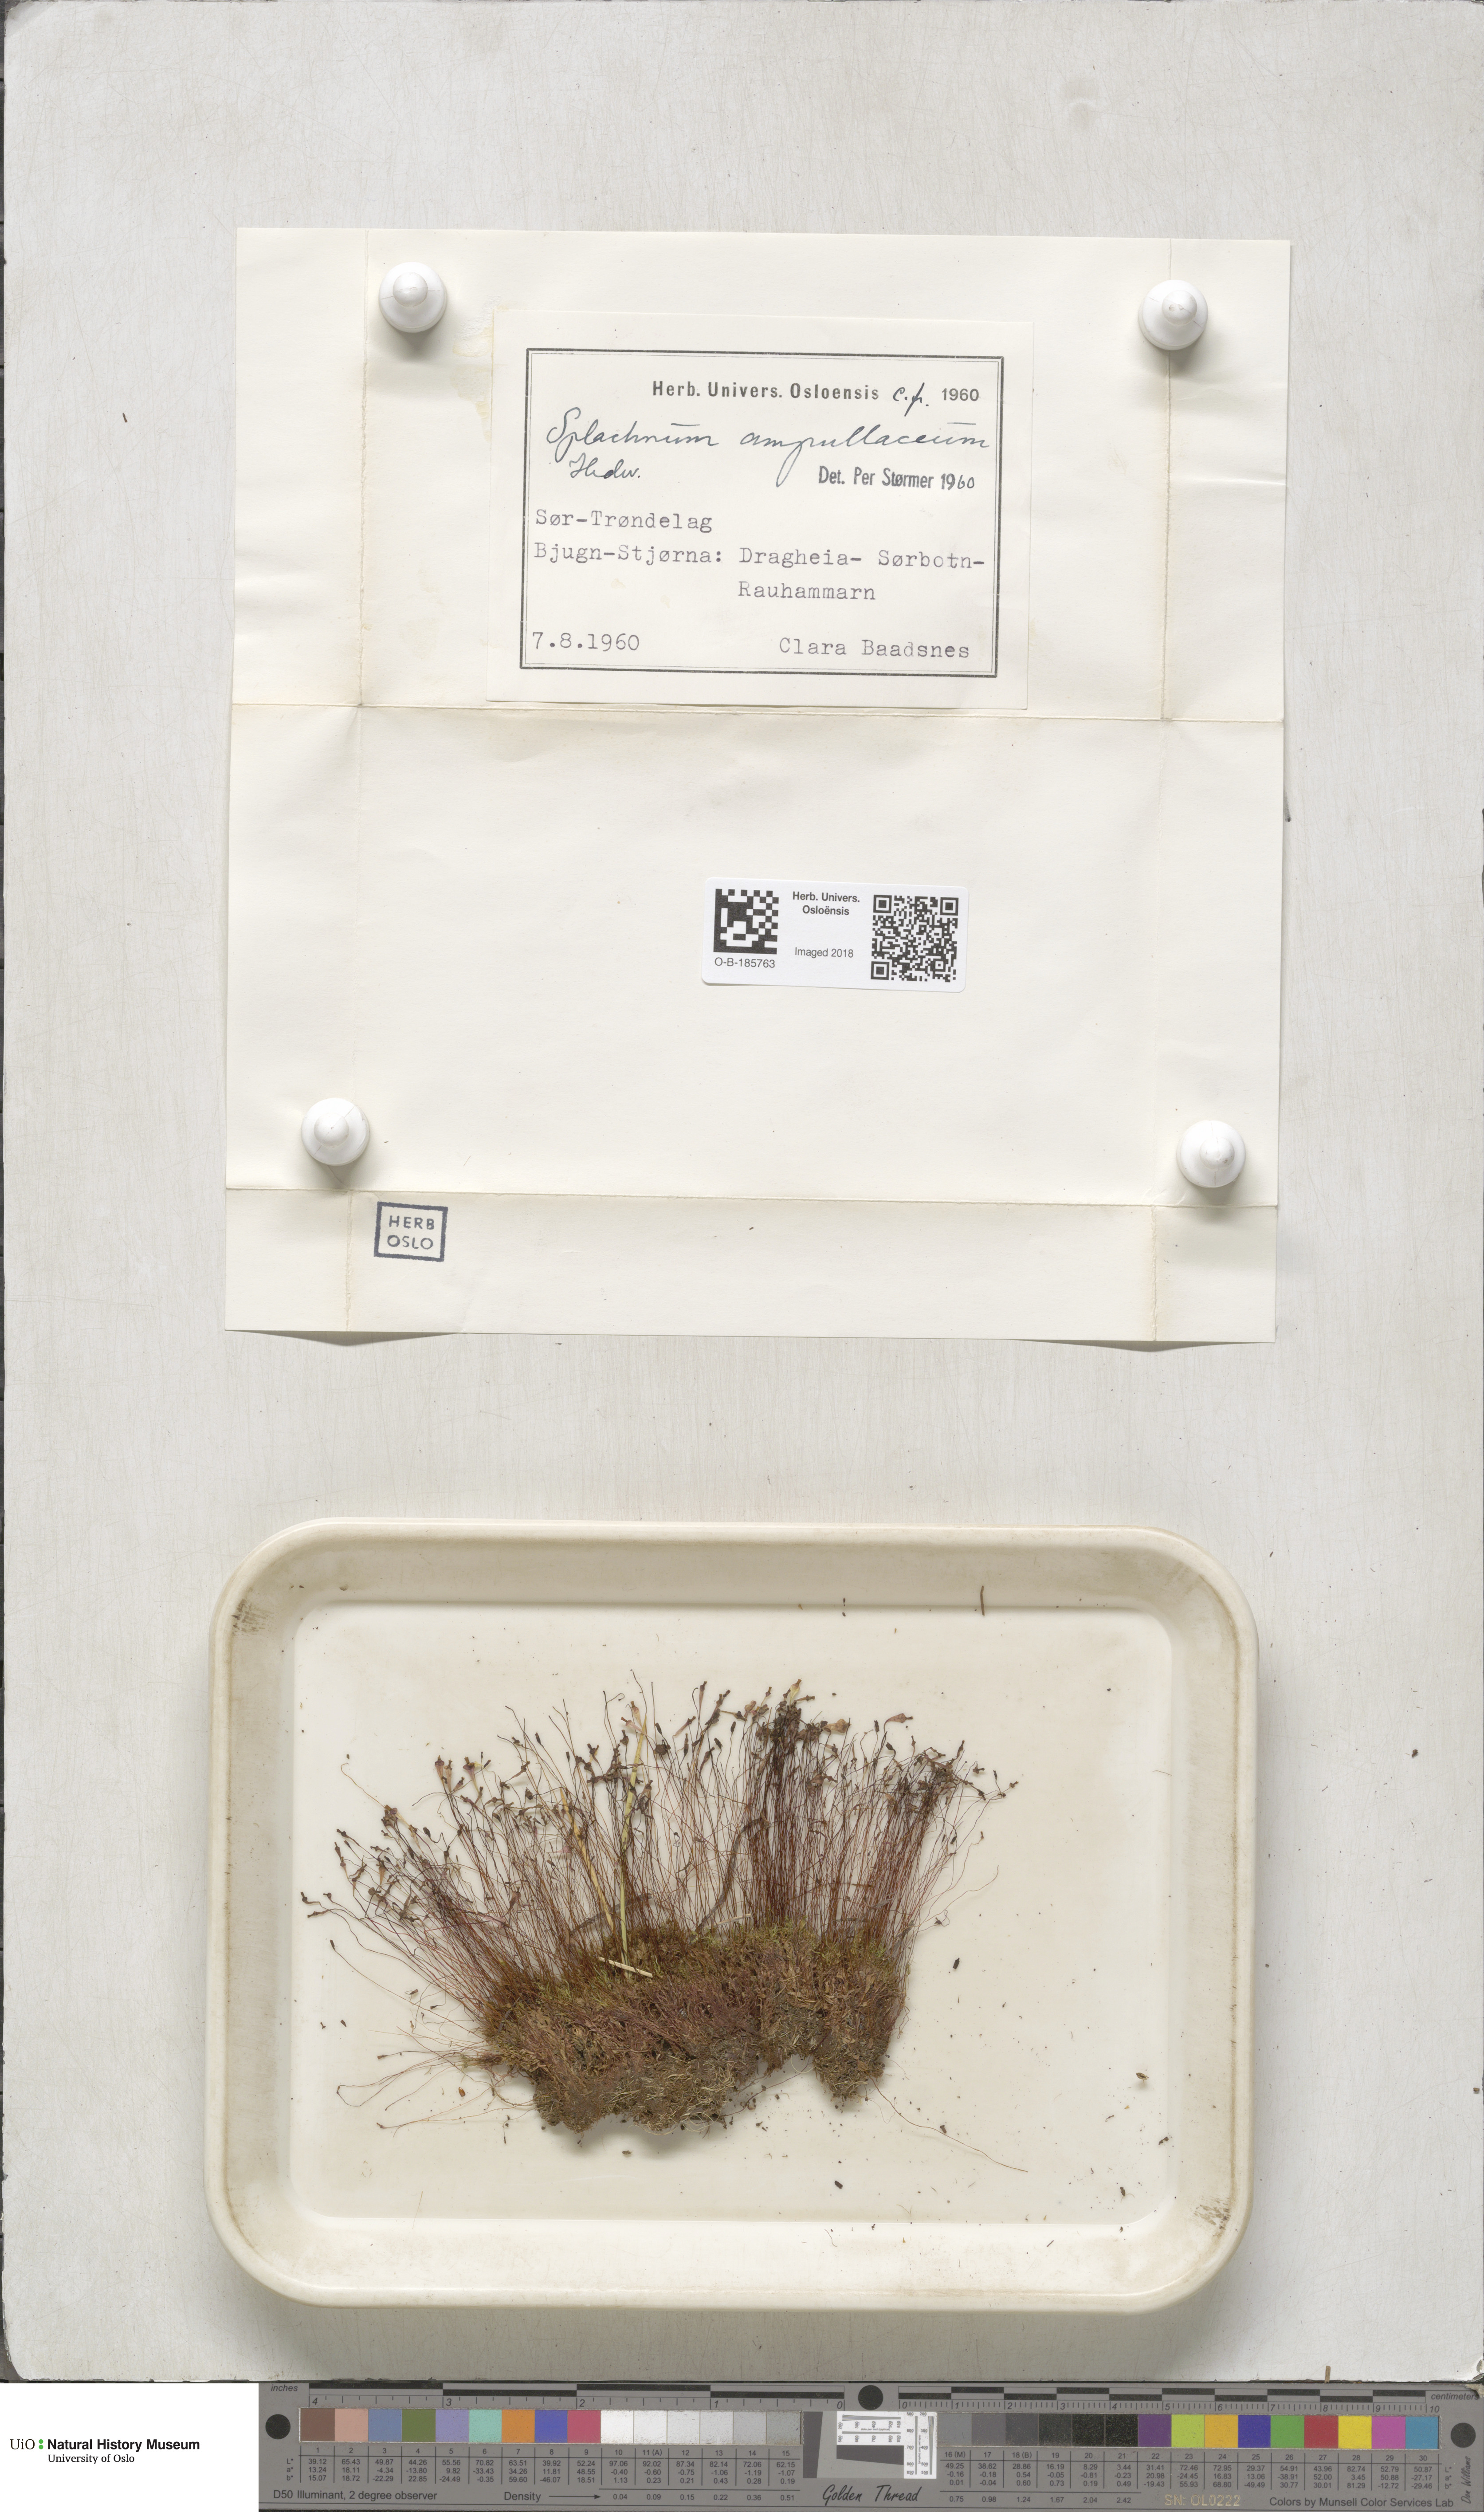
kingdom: Plantae
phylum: Bryophyta
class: Bryopsida
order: Splachnales
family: Splachnaceae
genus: Splachnum
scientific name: Splachnum ampullaceum
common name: Cruet dung moss
